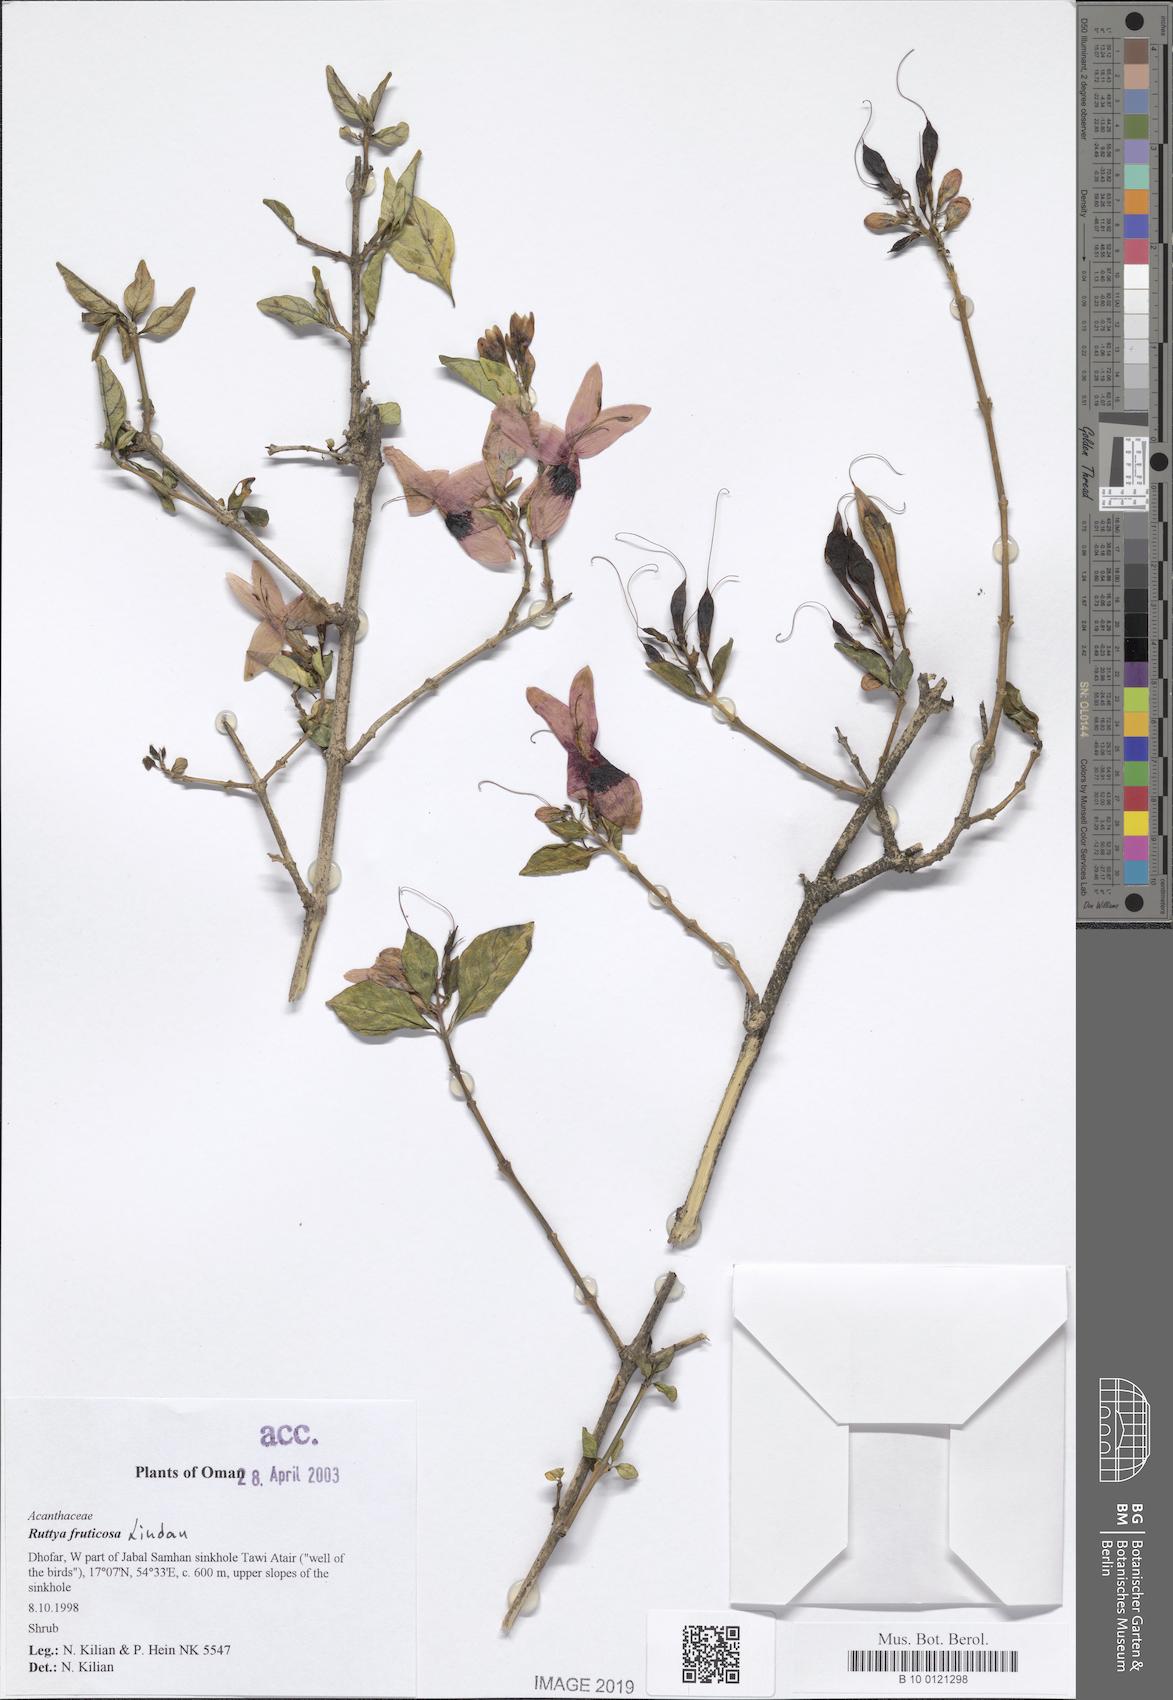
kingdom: Plantae
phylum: Tracheophyta
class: Magnoliopsida
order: Lamiales
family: Acanthaceae
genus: Ruttya
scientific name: Ruttya fruticosa
